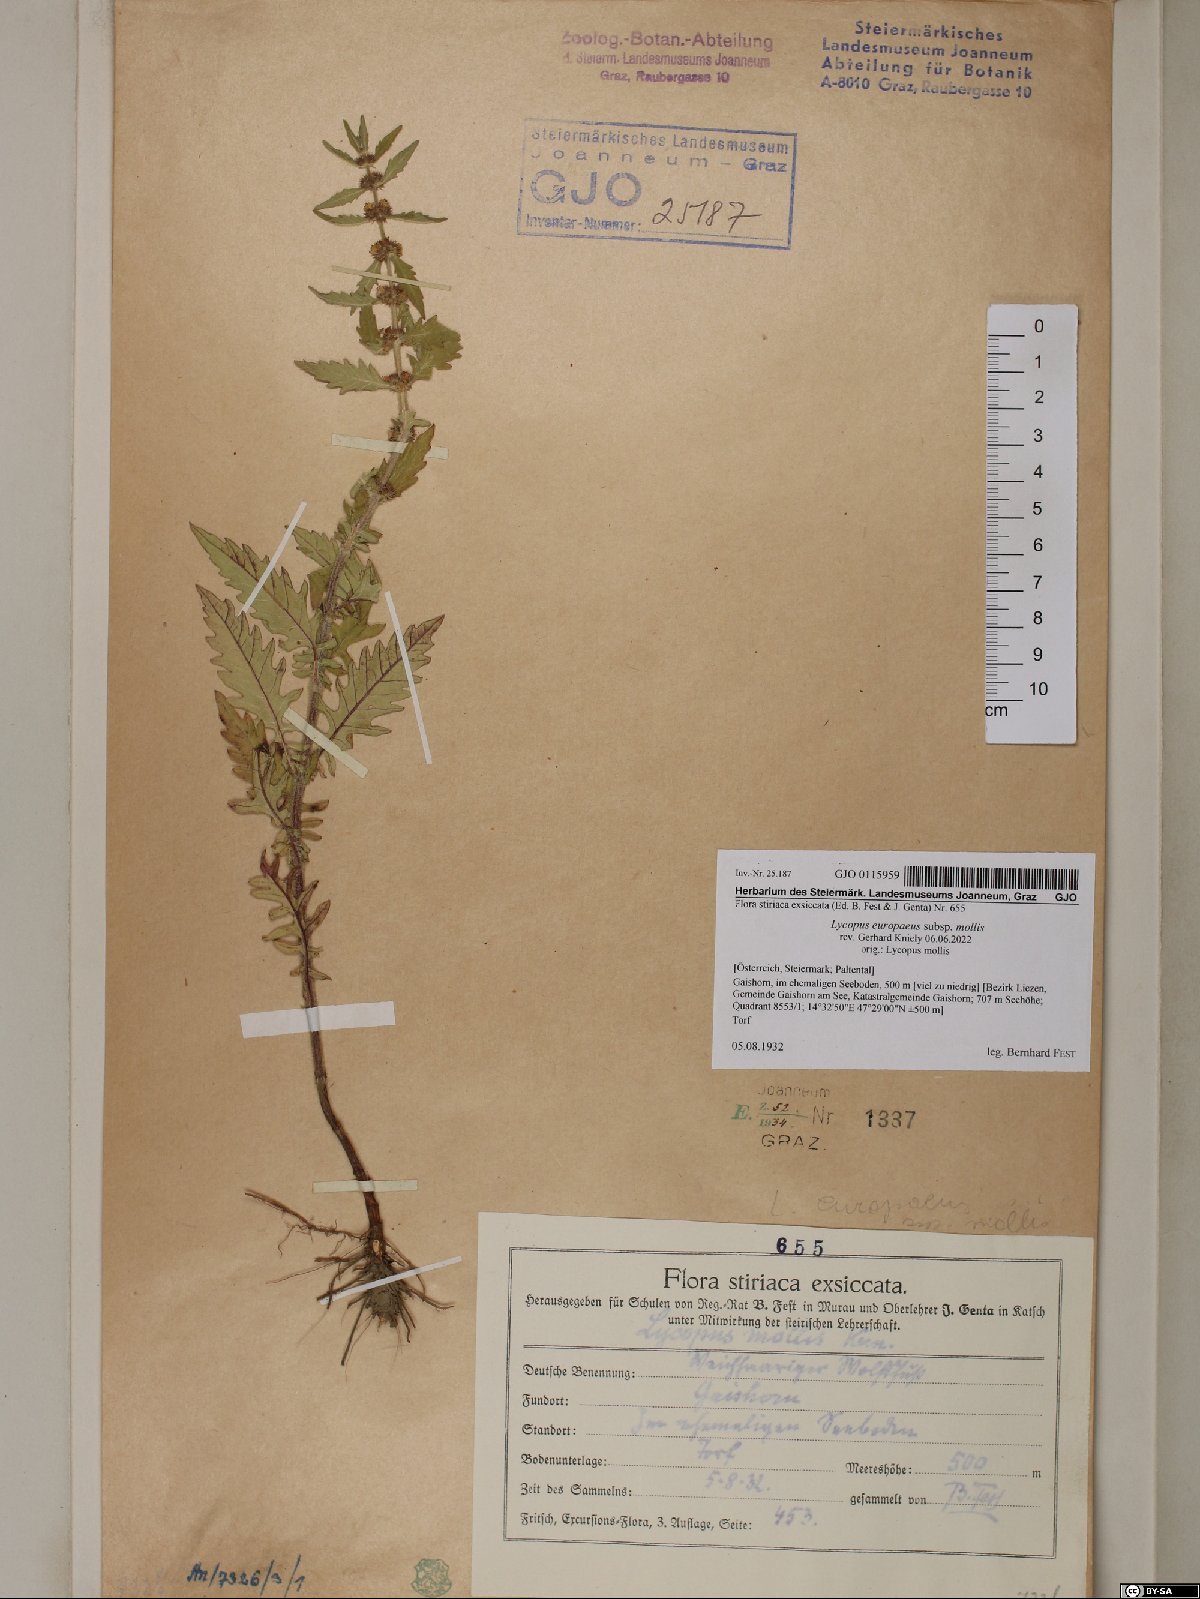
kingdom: Plantae
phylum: Tracheophyta
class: Magnoliopsida
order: Lamiales
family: Lamiaceae
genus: Lycopus
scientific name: Lycopus europaeus
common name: European bugleweed
